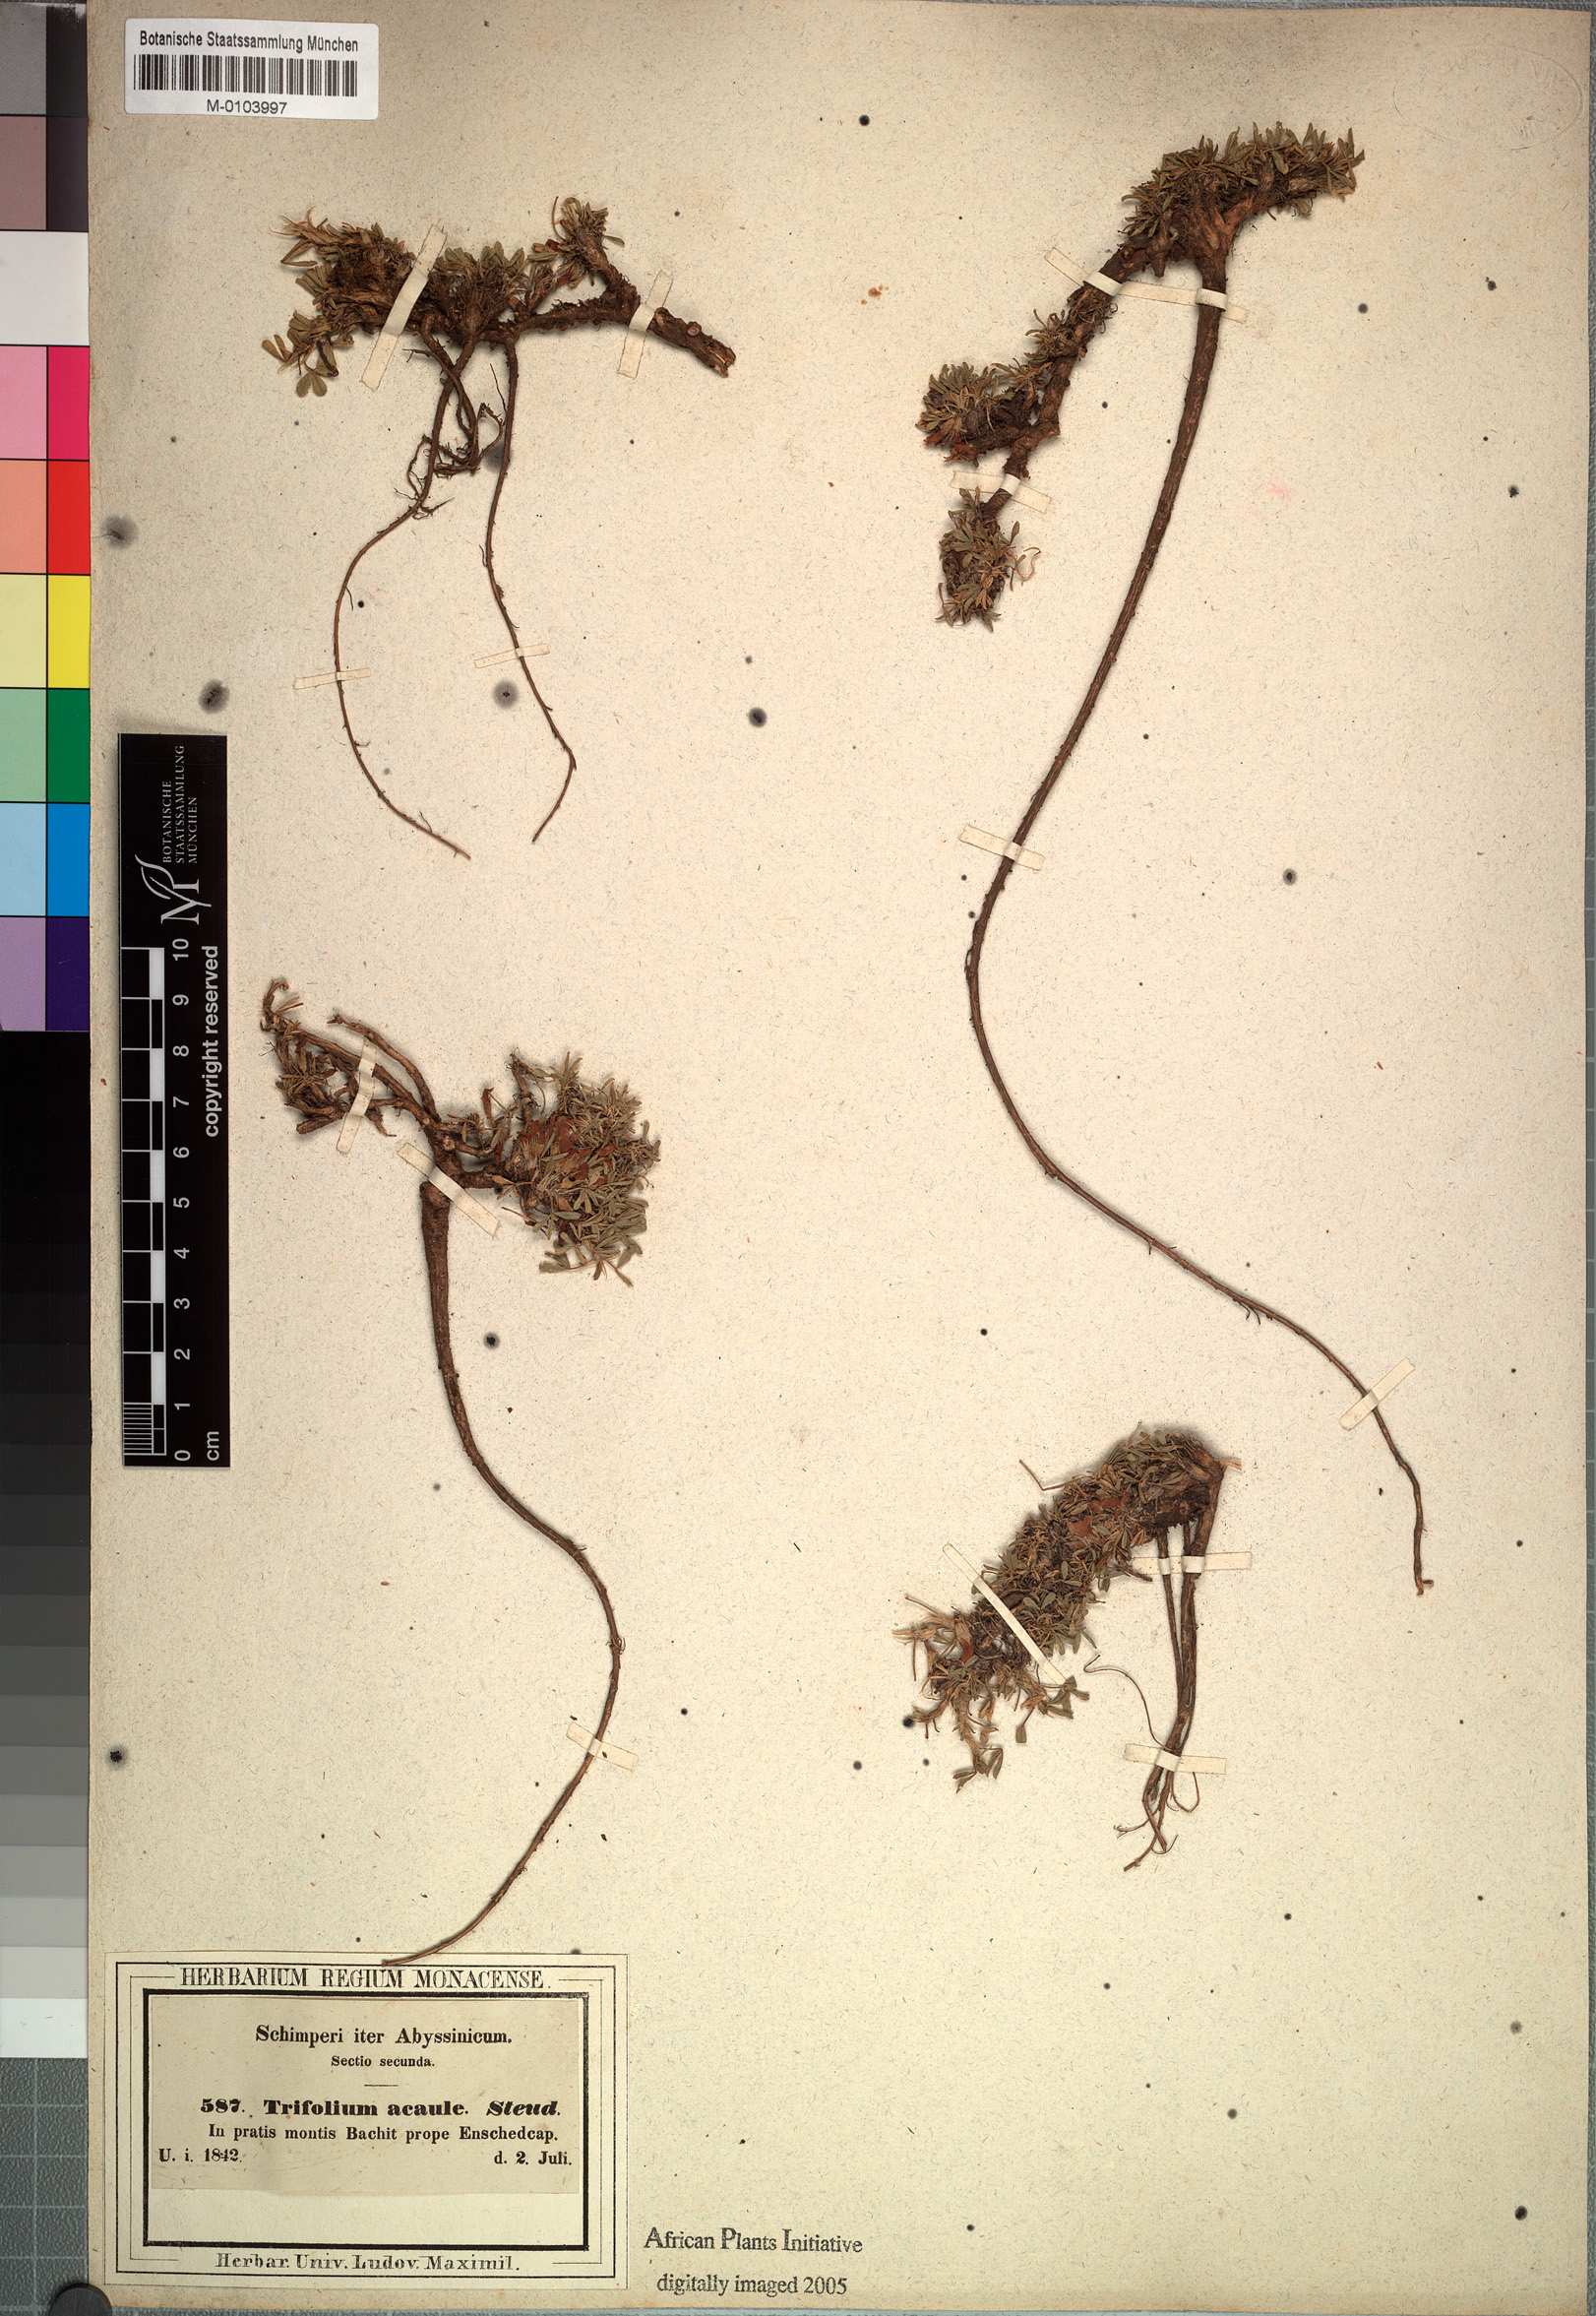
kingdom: Plantae
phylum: Tracheophyta
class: Magnoliopsida
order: Fabales
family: Fabaceae
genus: Trifolium
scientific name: Trifolium acaule
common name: Stemless clover
